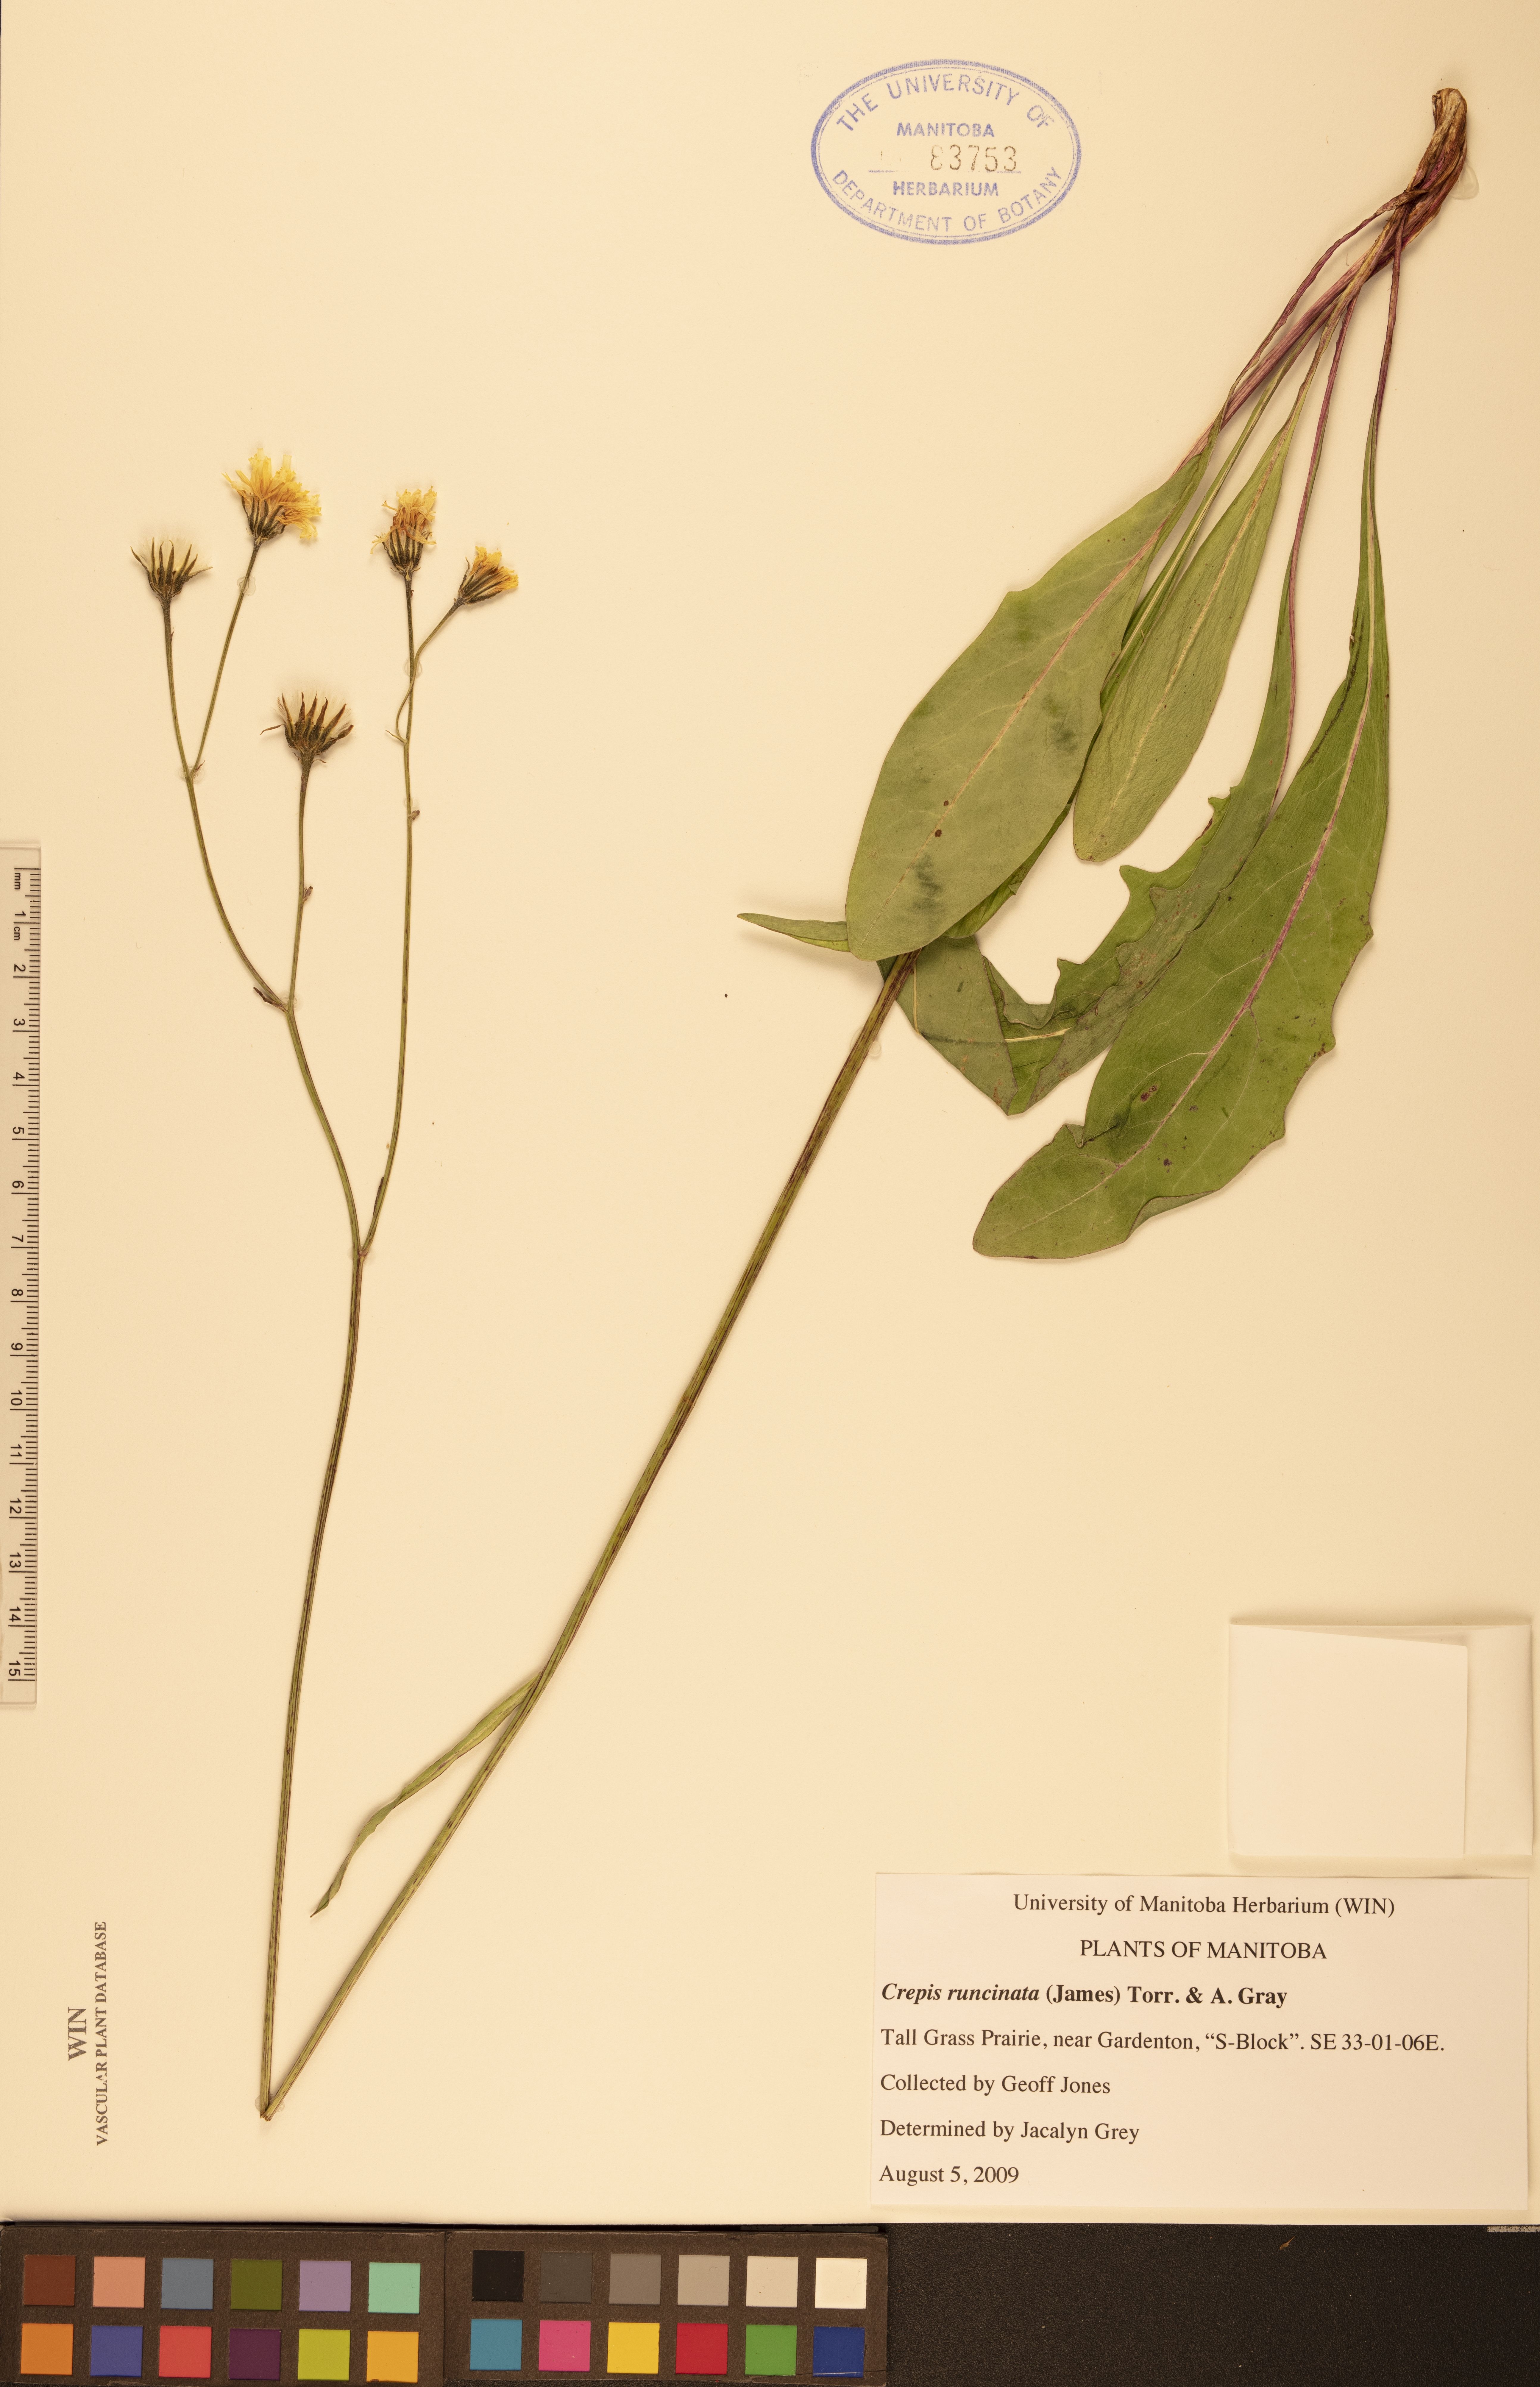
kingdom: Plantae
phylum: Tracheophyta
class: Magnoliopsida
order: Asterales
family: Asteraceae
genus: Crepis
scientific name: Crepis runcinata
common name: Dandelion hawksbeard
